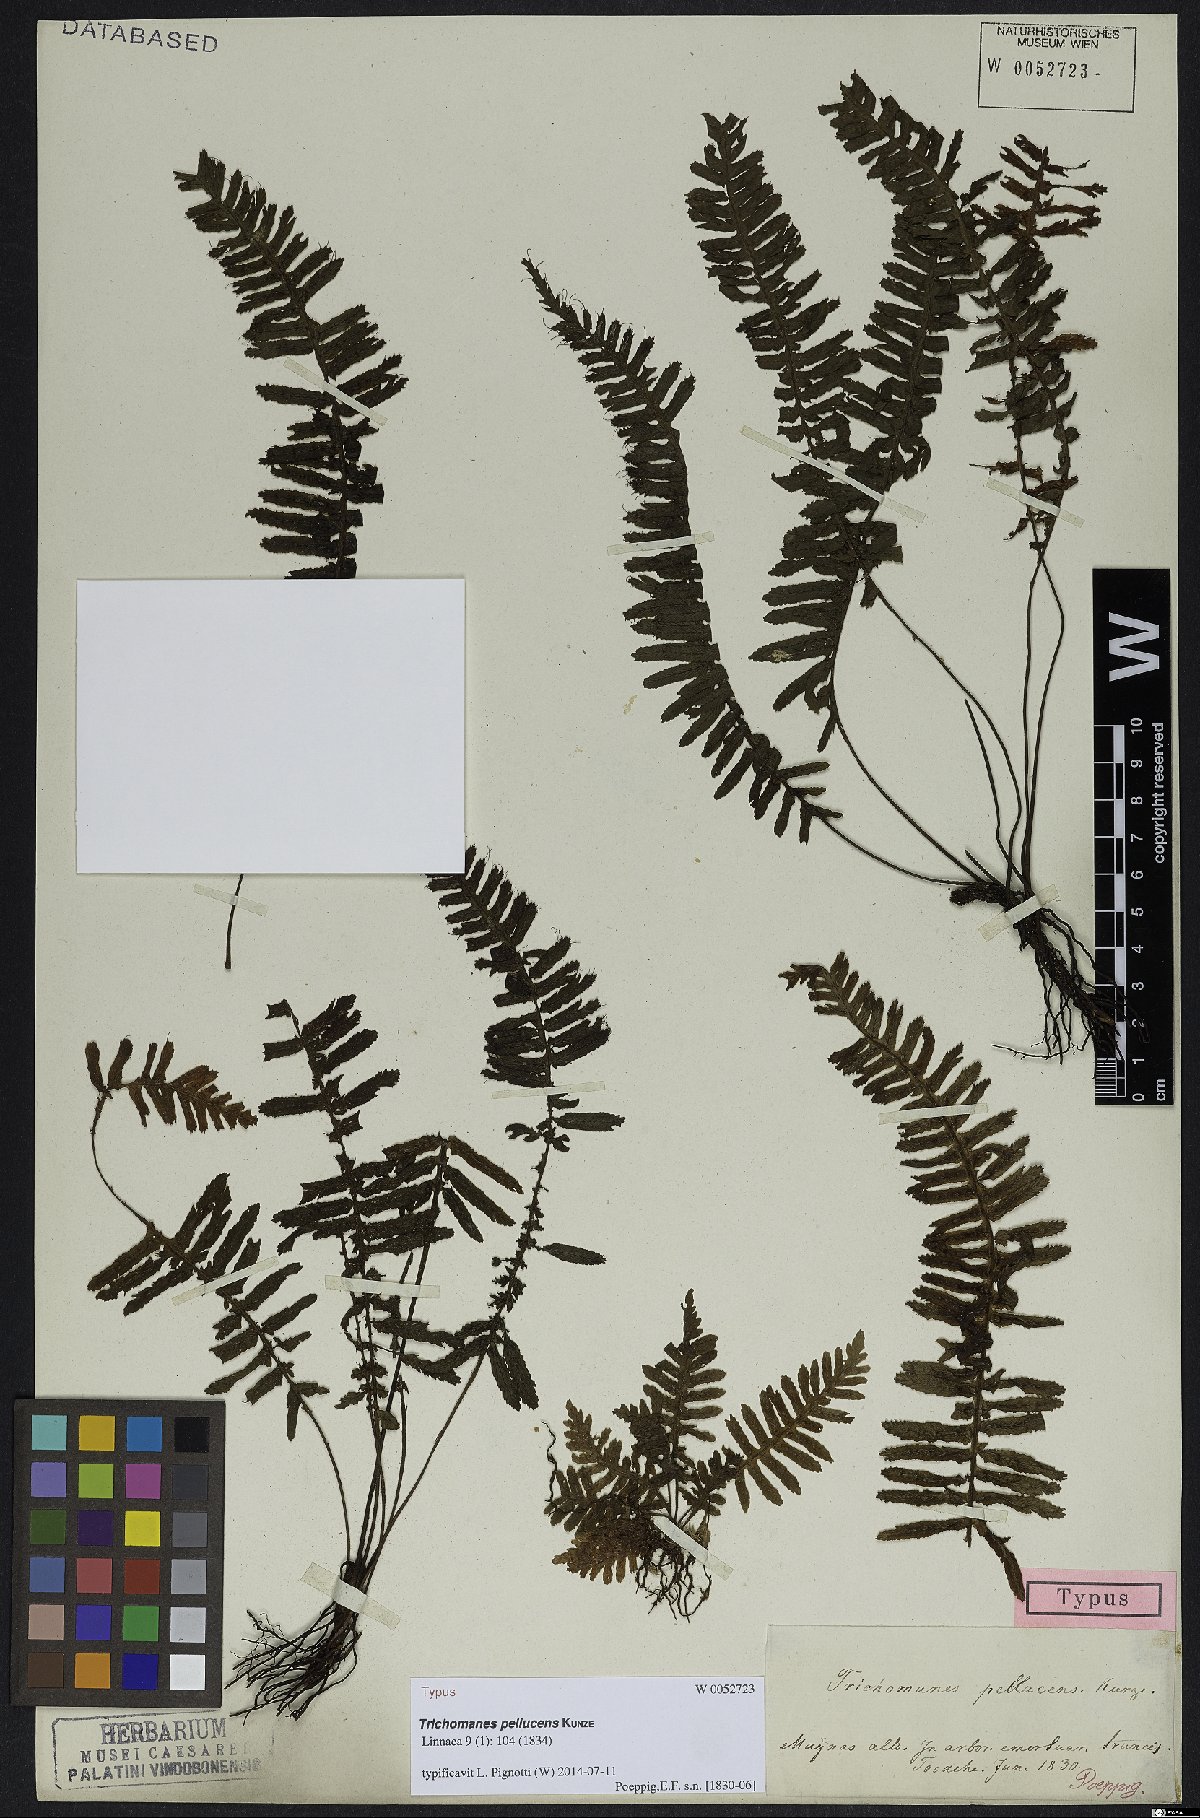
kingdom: Plantae
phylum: Tracheophyta
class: Polypodiopsida
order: Hymenophyllales
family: Hymenophyllaceae
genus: Trichomanes
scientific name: Trichomanes pellucens
